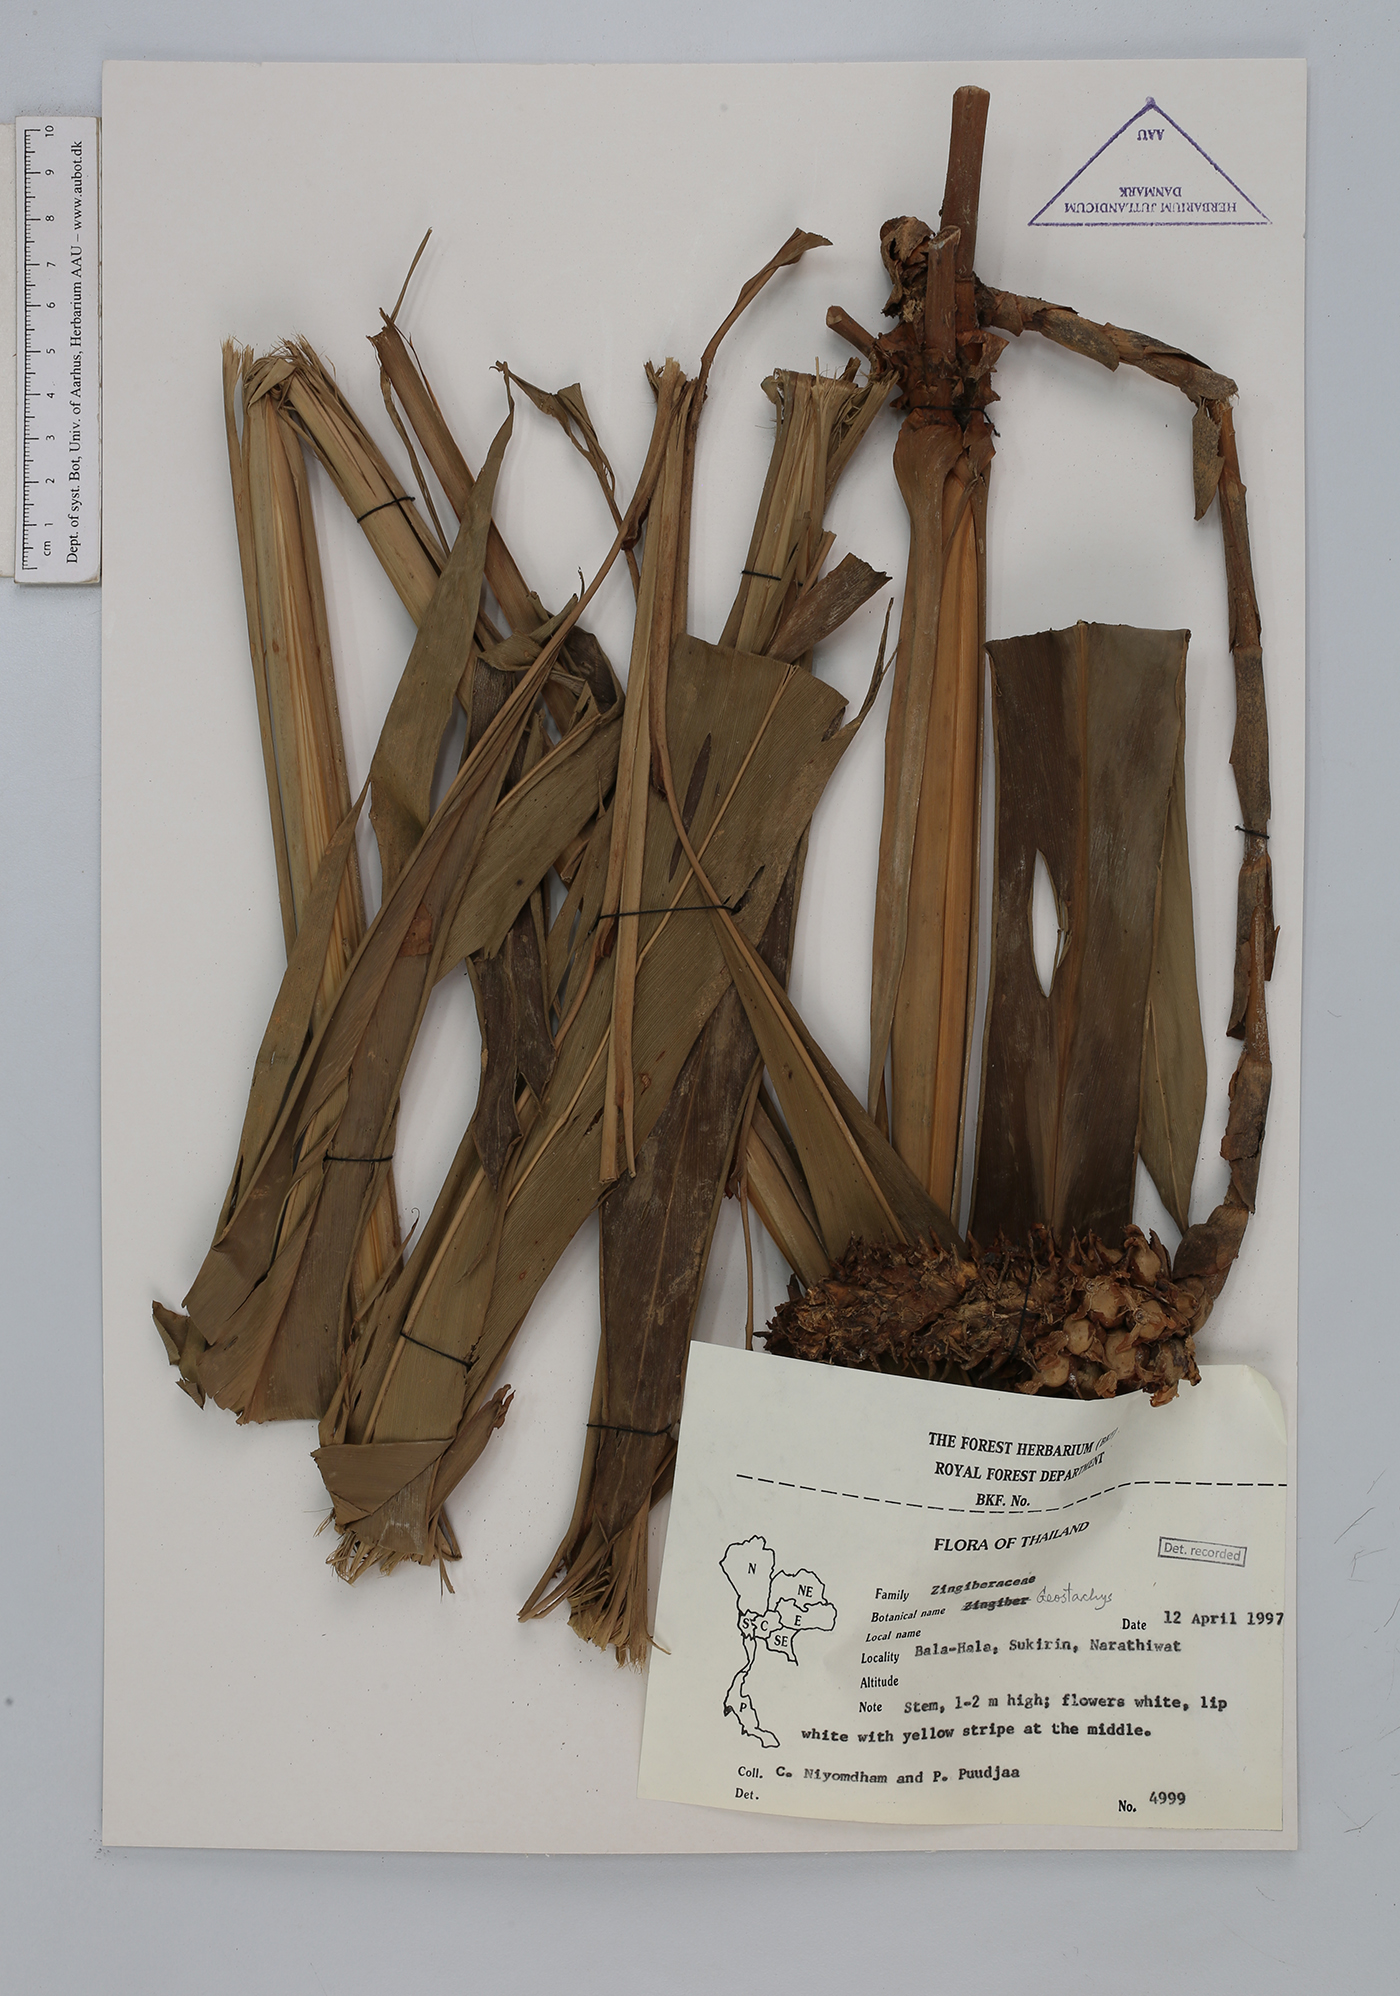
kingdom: Plantae
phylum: Tracheophyta
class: Liliopsida
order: Zingiberales
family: Zingiberaceae
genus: Amomum
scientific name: Amomum
